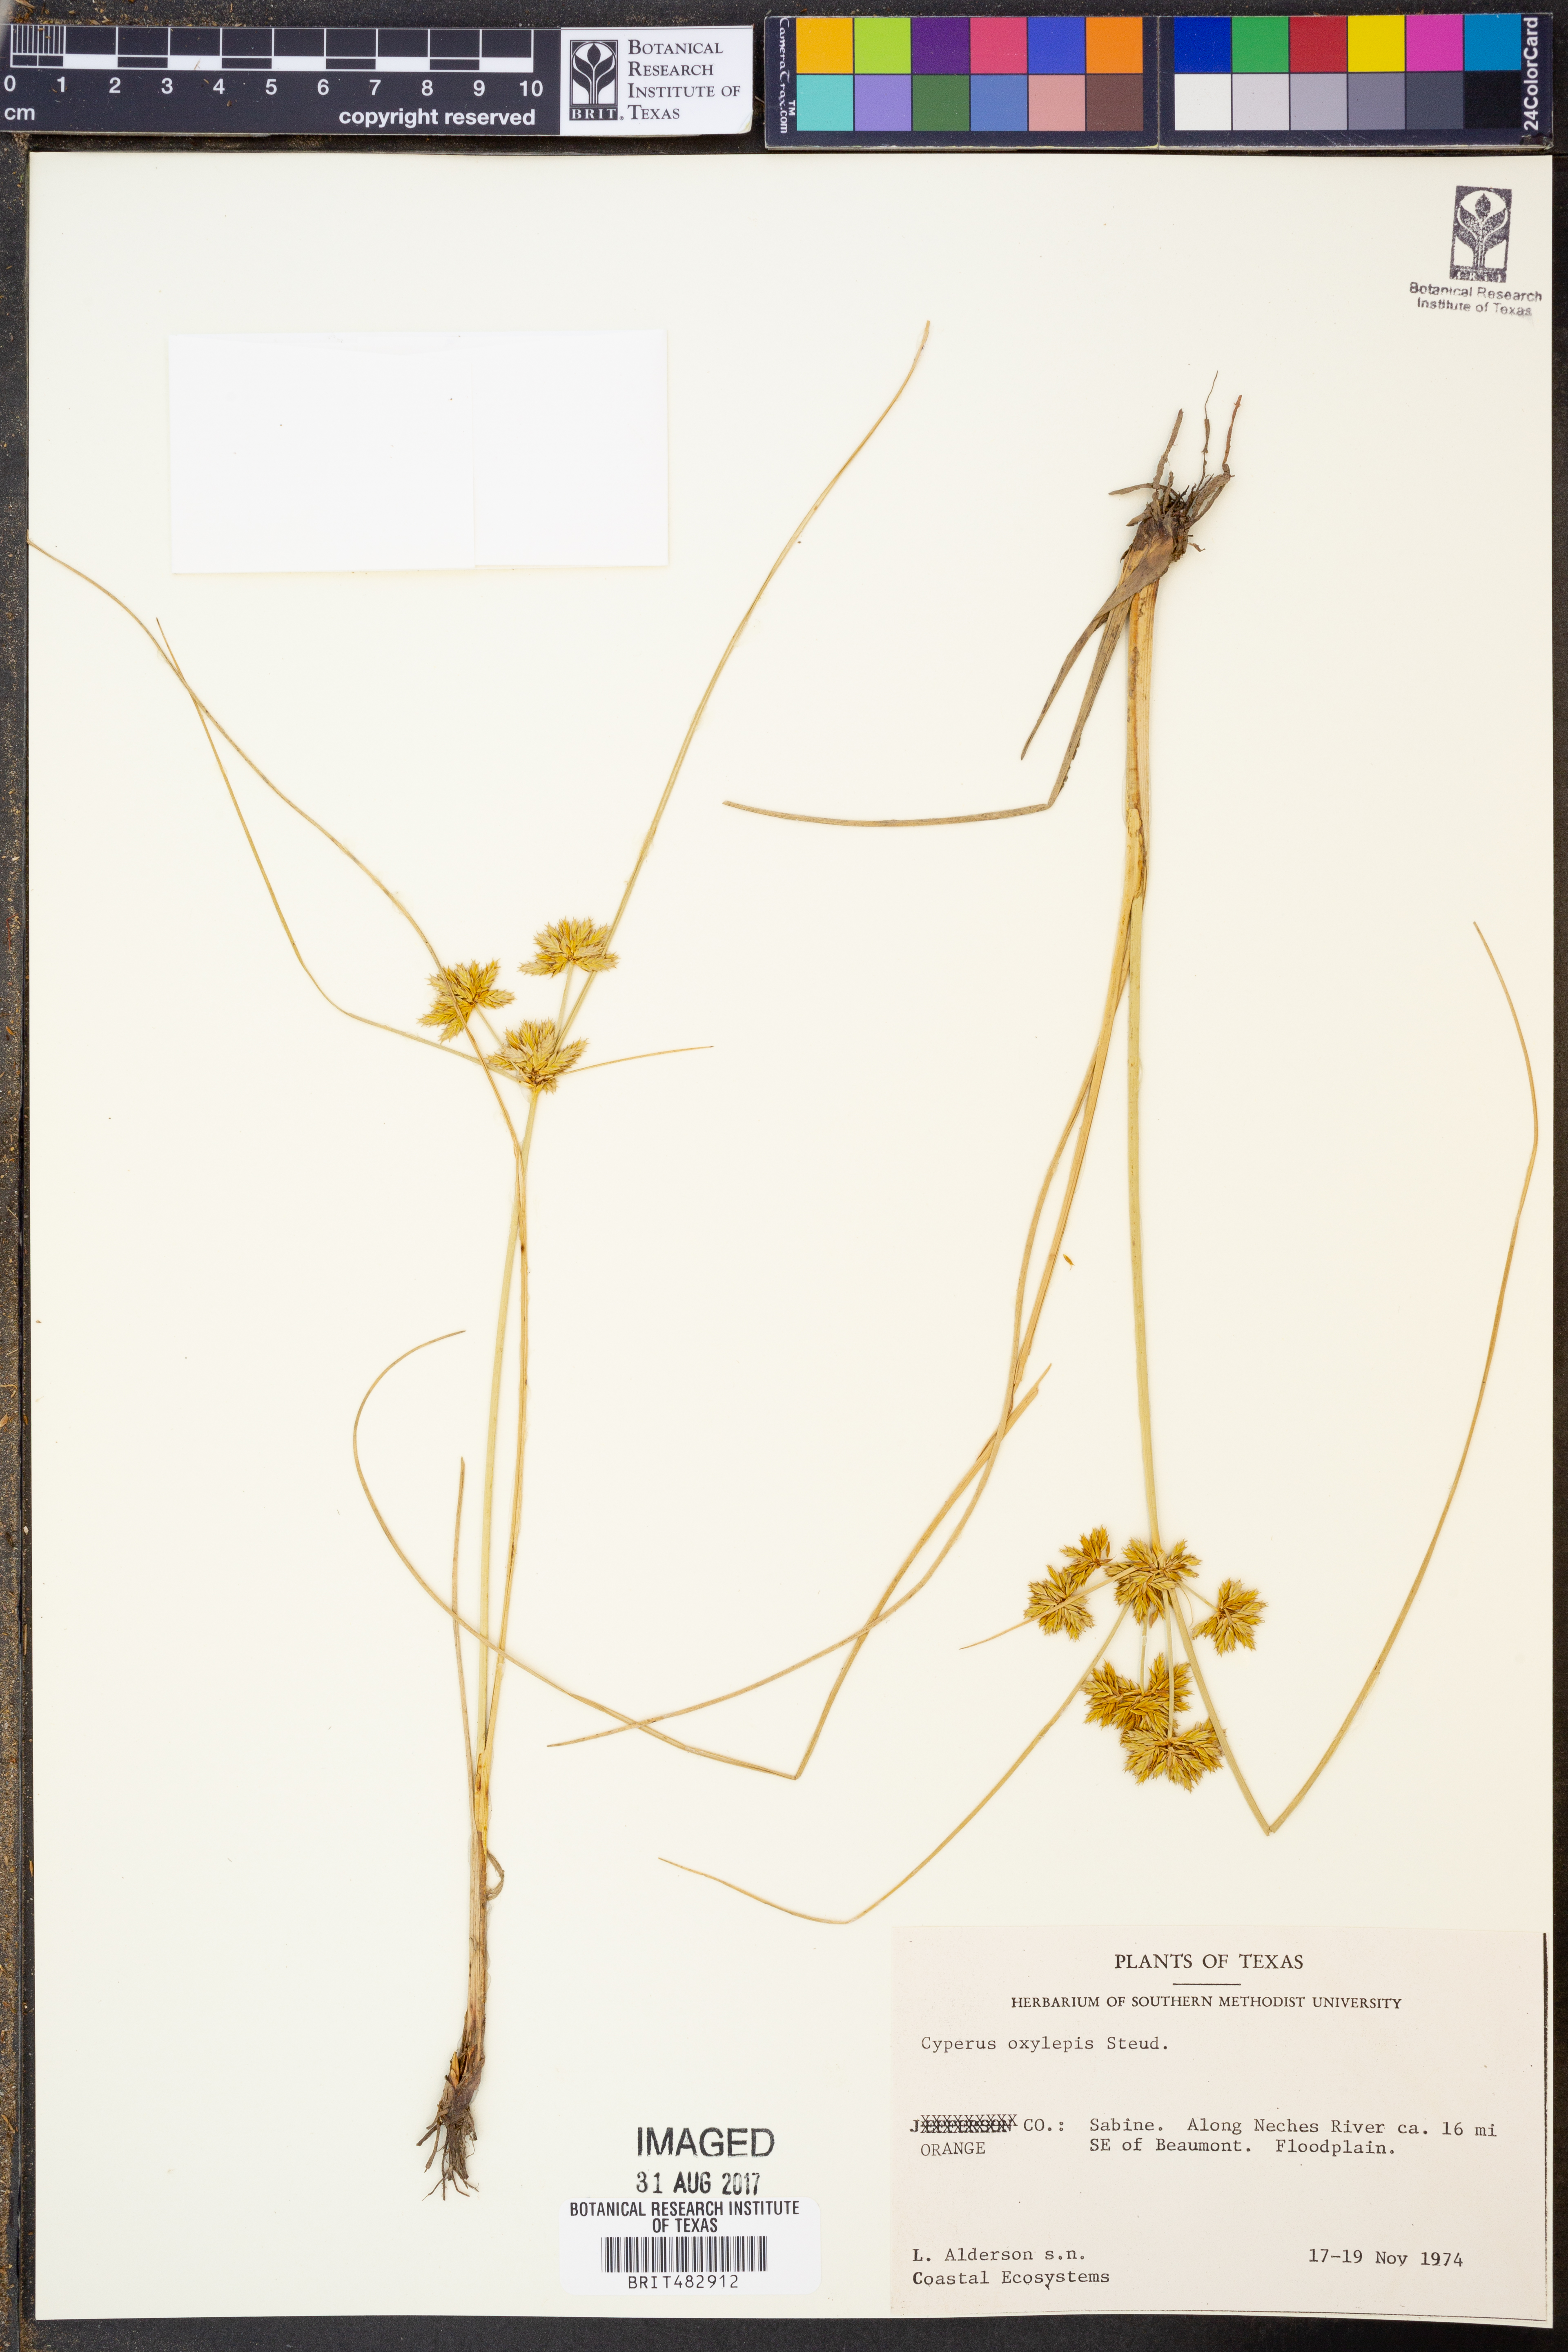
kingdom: Plantae
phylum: Tracheophyta
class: Liliopsida
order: Poales
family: Cyperaceae
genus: Cyperus
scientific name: Cyperus oxylepis
